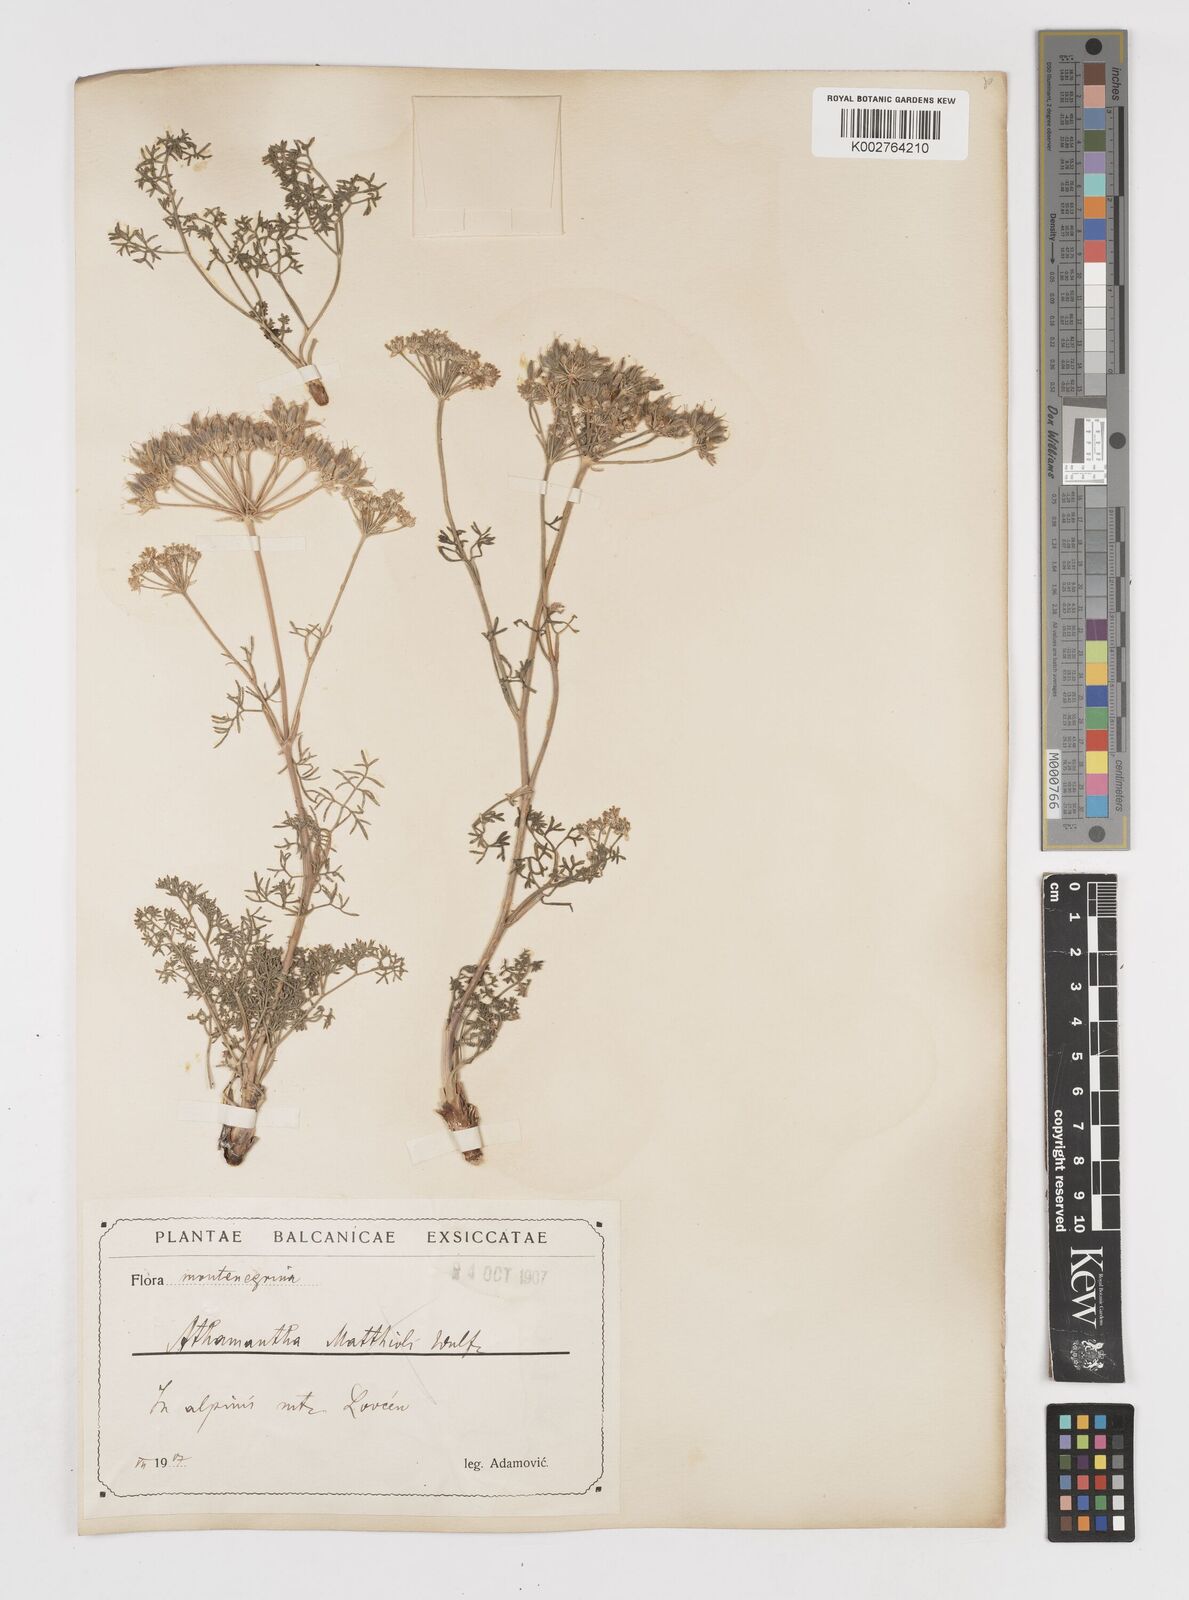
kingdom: Plantae
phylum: Tracheophyta
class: Magnoliopsida
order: Apiales
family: Apiaceae
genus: Athamanta
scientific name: Athamanta cretensis
